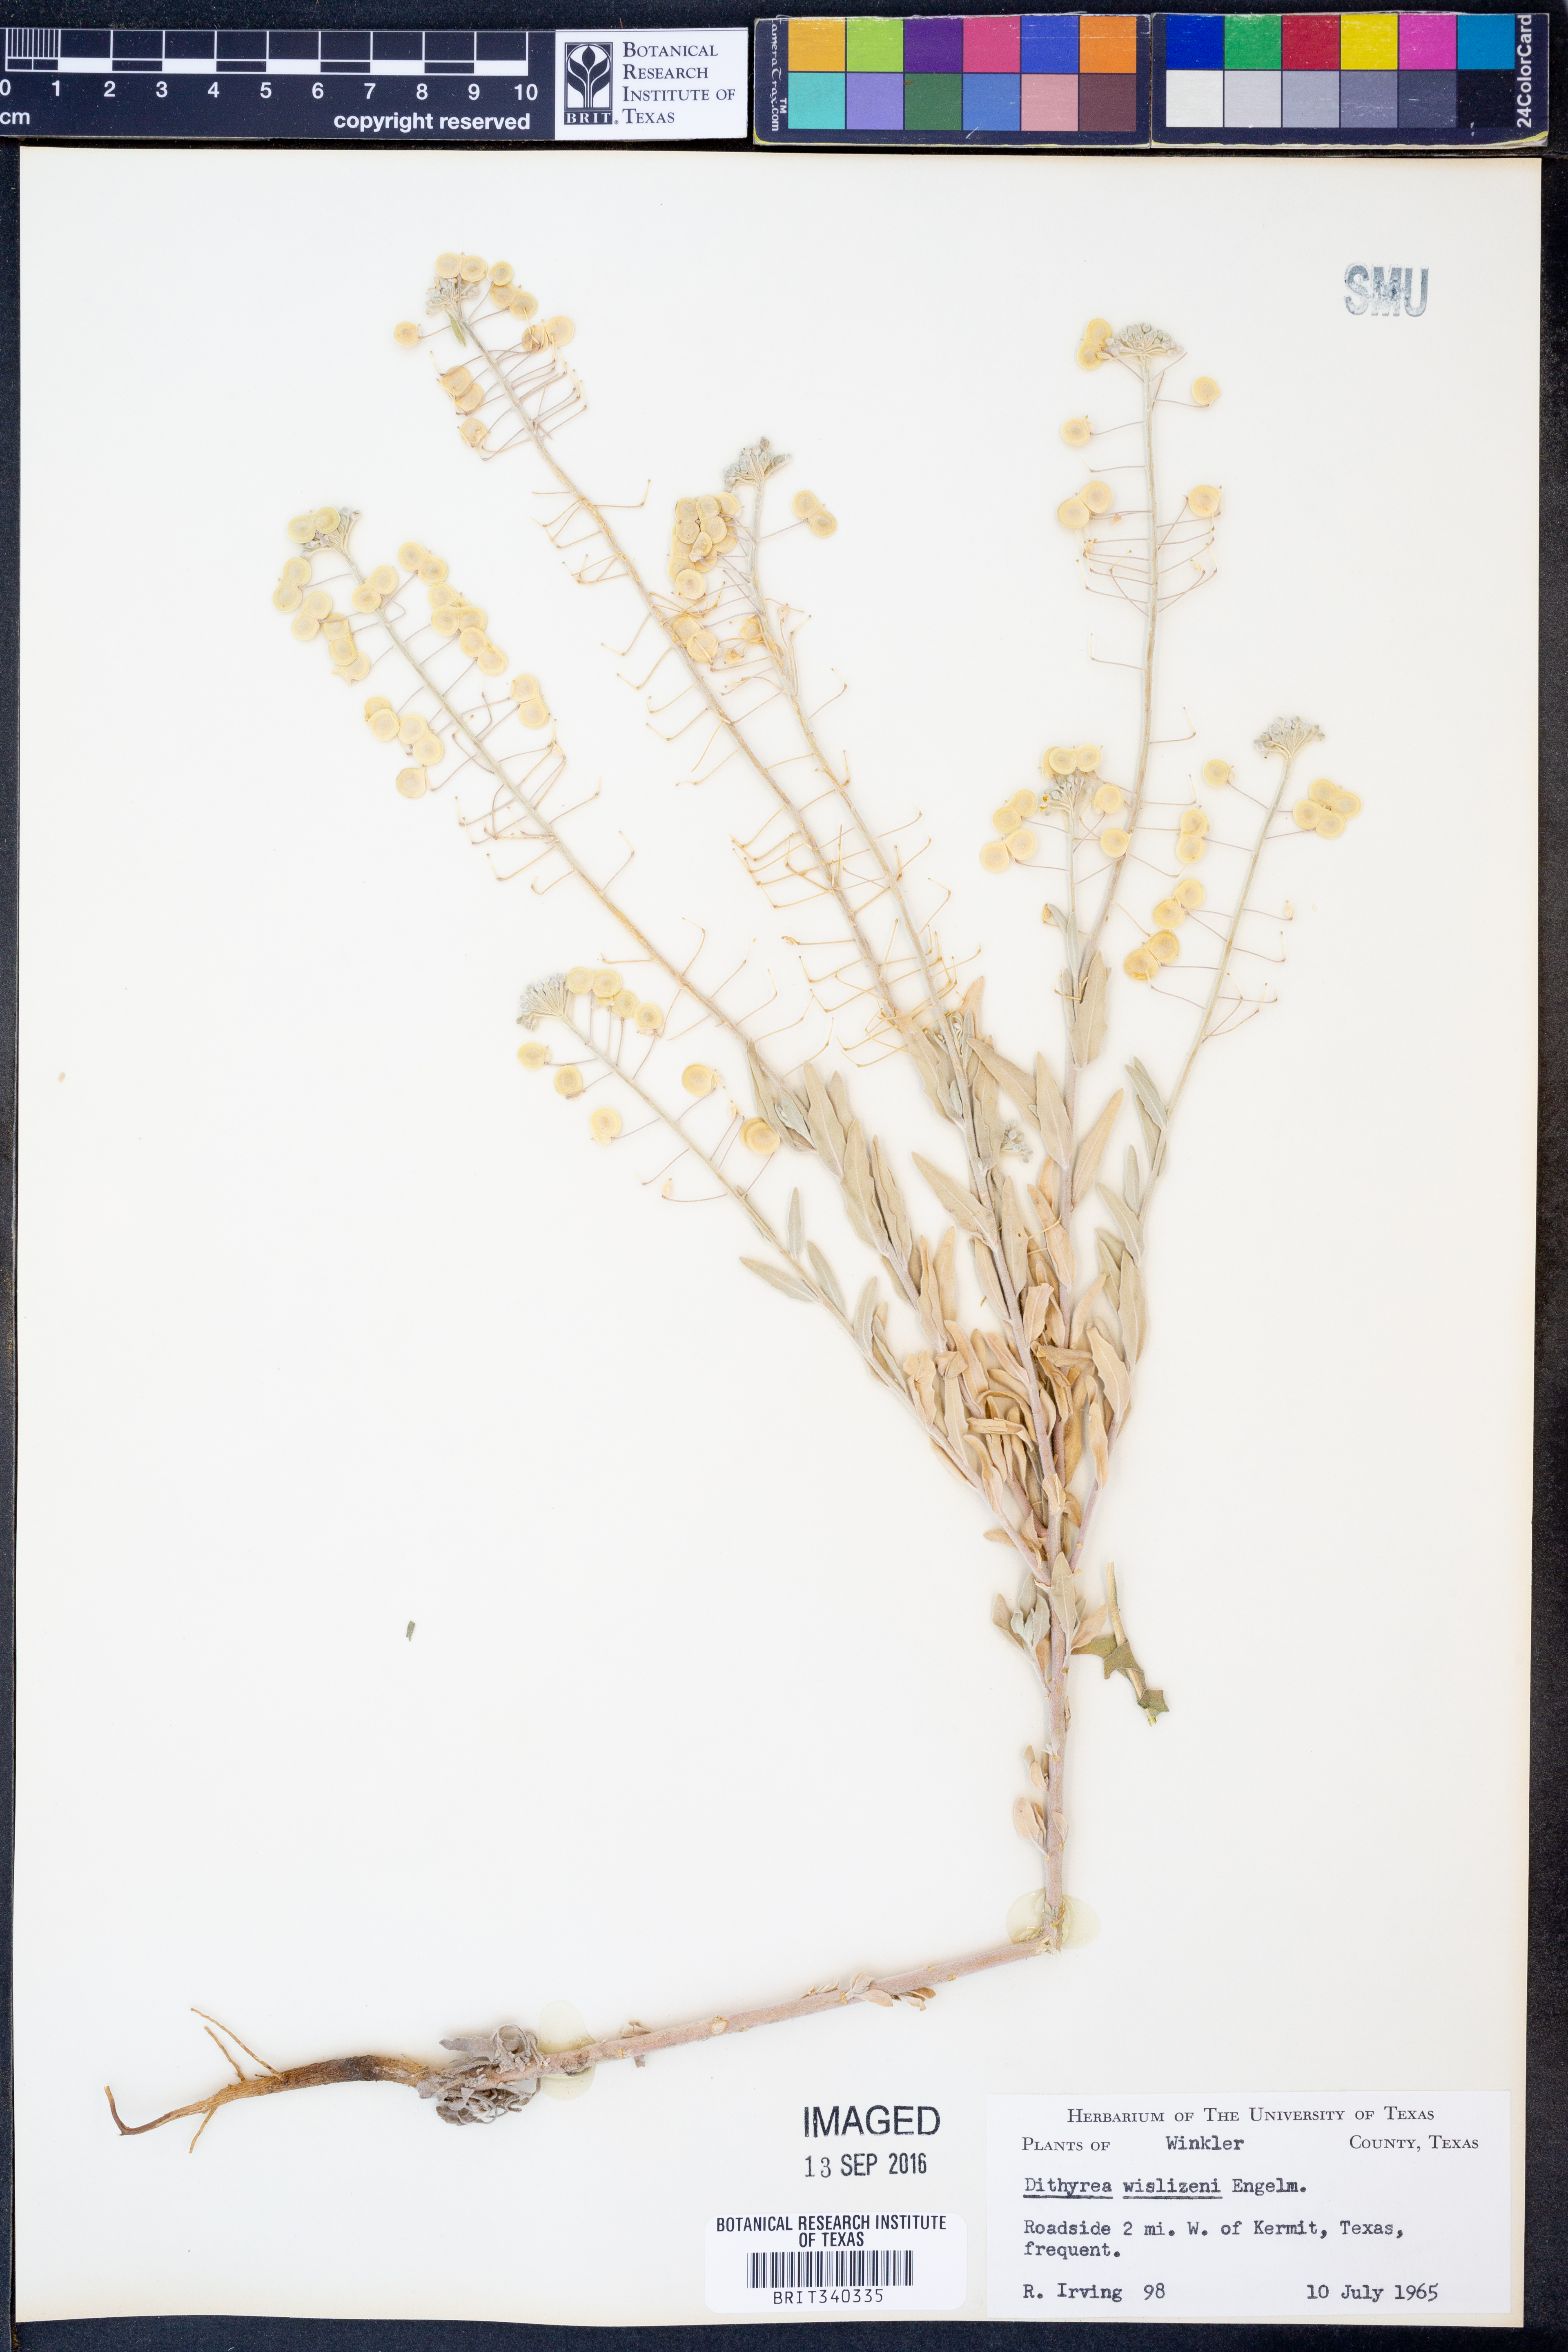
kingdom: Plantae
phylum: Tracheophyta
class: Magnoliopsida
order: Brassicales
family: Brassicaceae
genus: Dimorphocarpa
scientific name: Dimorphocarpa wislizenii
